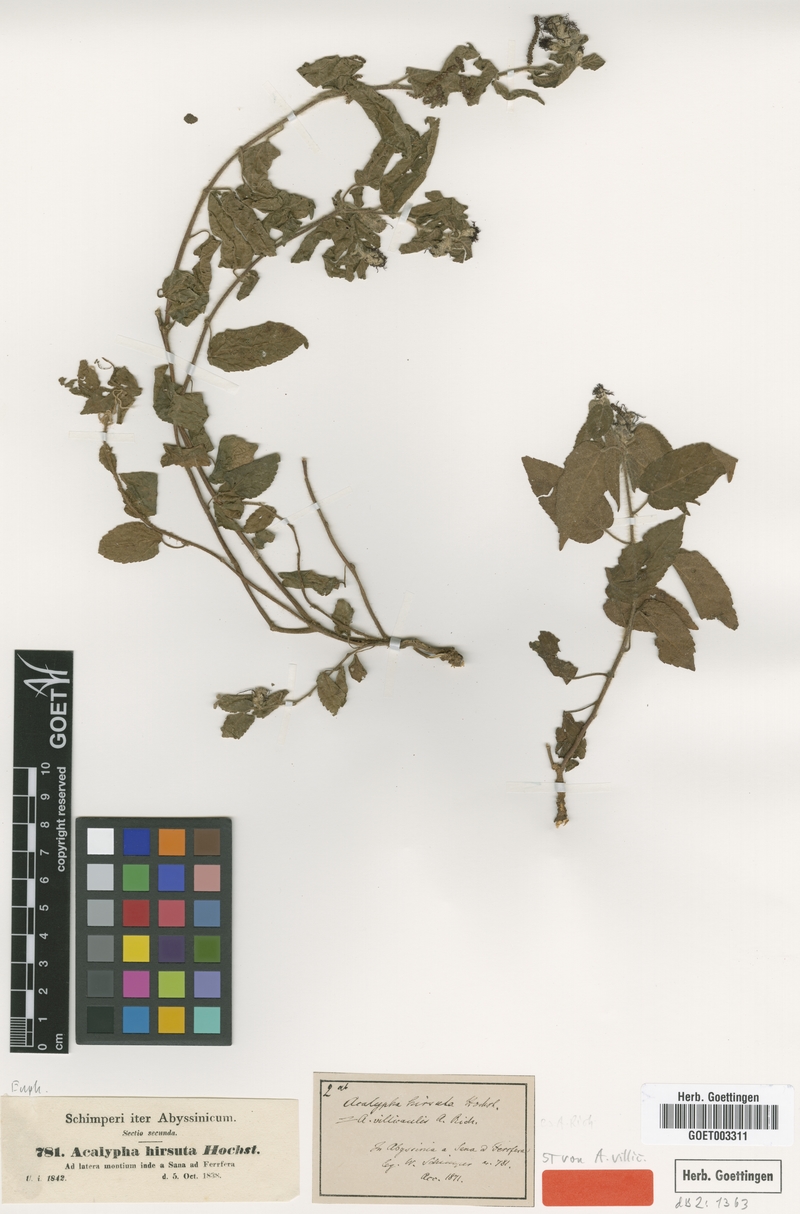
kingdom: Plantae
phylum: Tracheophyta
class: Magnoliopsida
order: Malpighiales
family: Euphorbiaceae
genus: Acalypha
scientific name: Acalypha petiolaris
